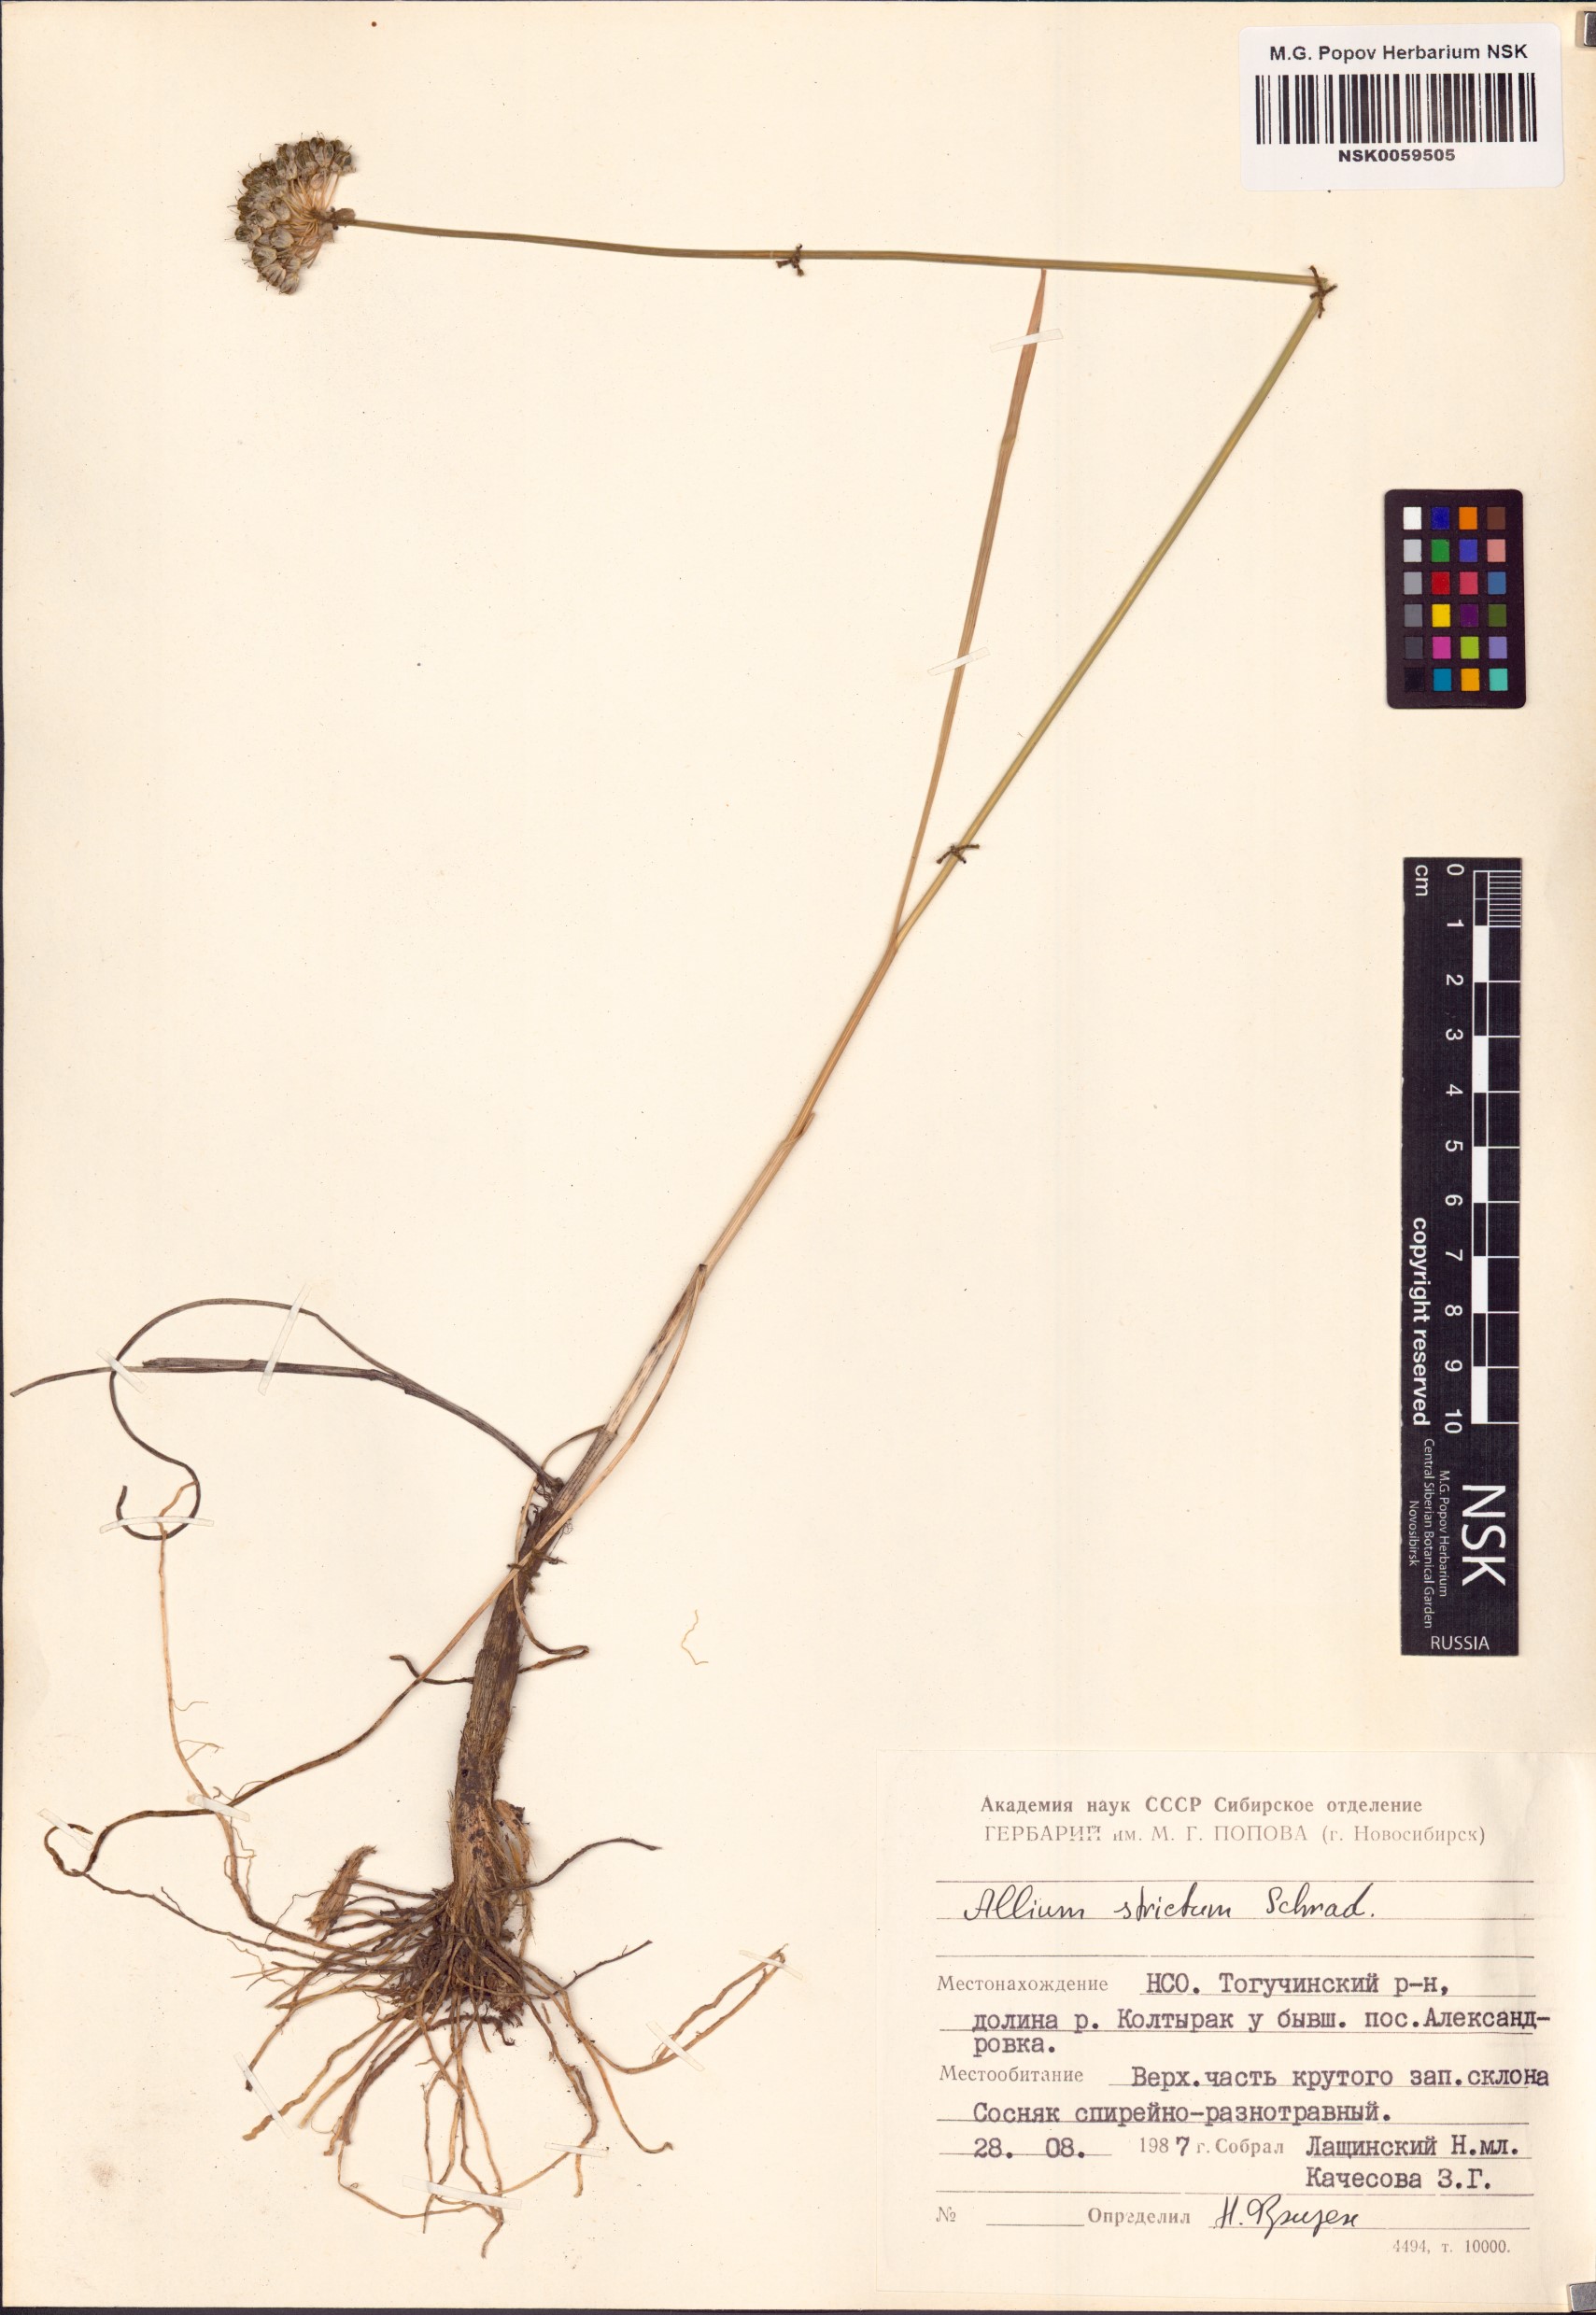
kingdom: Plantae
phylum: Tracheophyta
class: Liliopsida
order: Asparagales
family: Amaryllidaceae
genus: Allium
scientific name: Allium strictum
